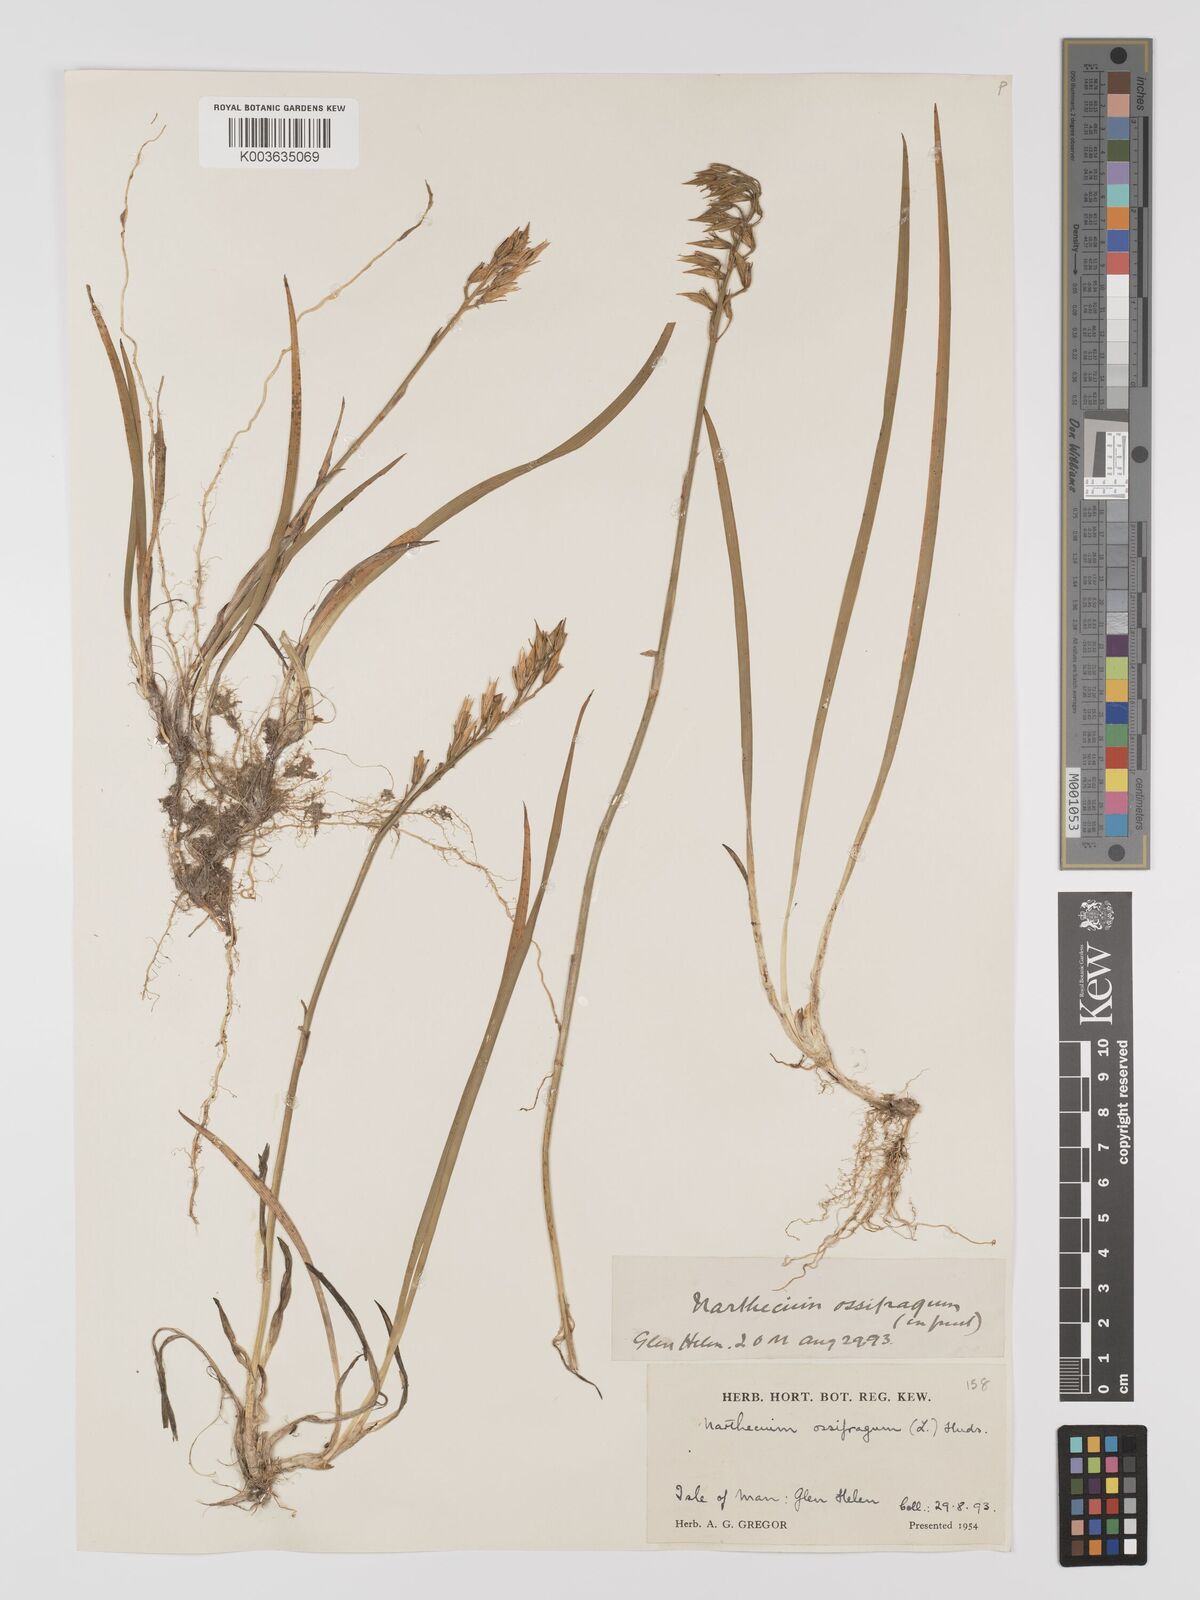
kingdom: Plantae
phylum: Tracheophyta
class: Liliopsida
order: Dioscoreales
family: Nartheciaceae
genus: Narthecium
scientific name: Narthecium ossifragum
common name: Bog asphodel
